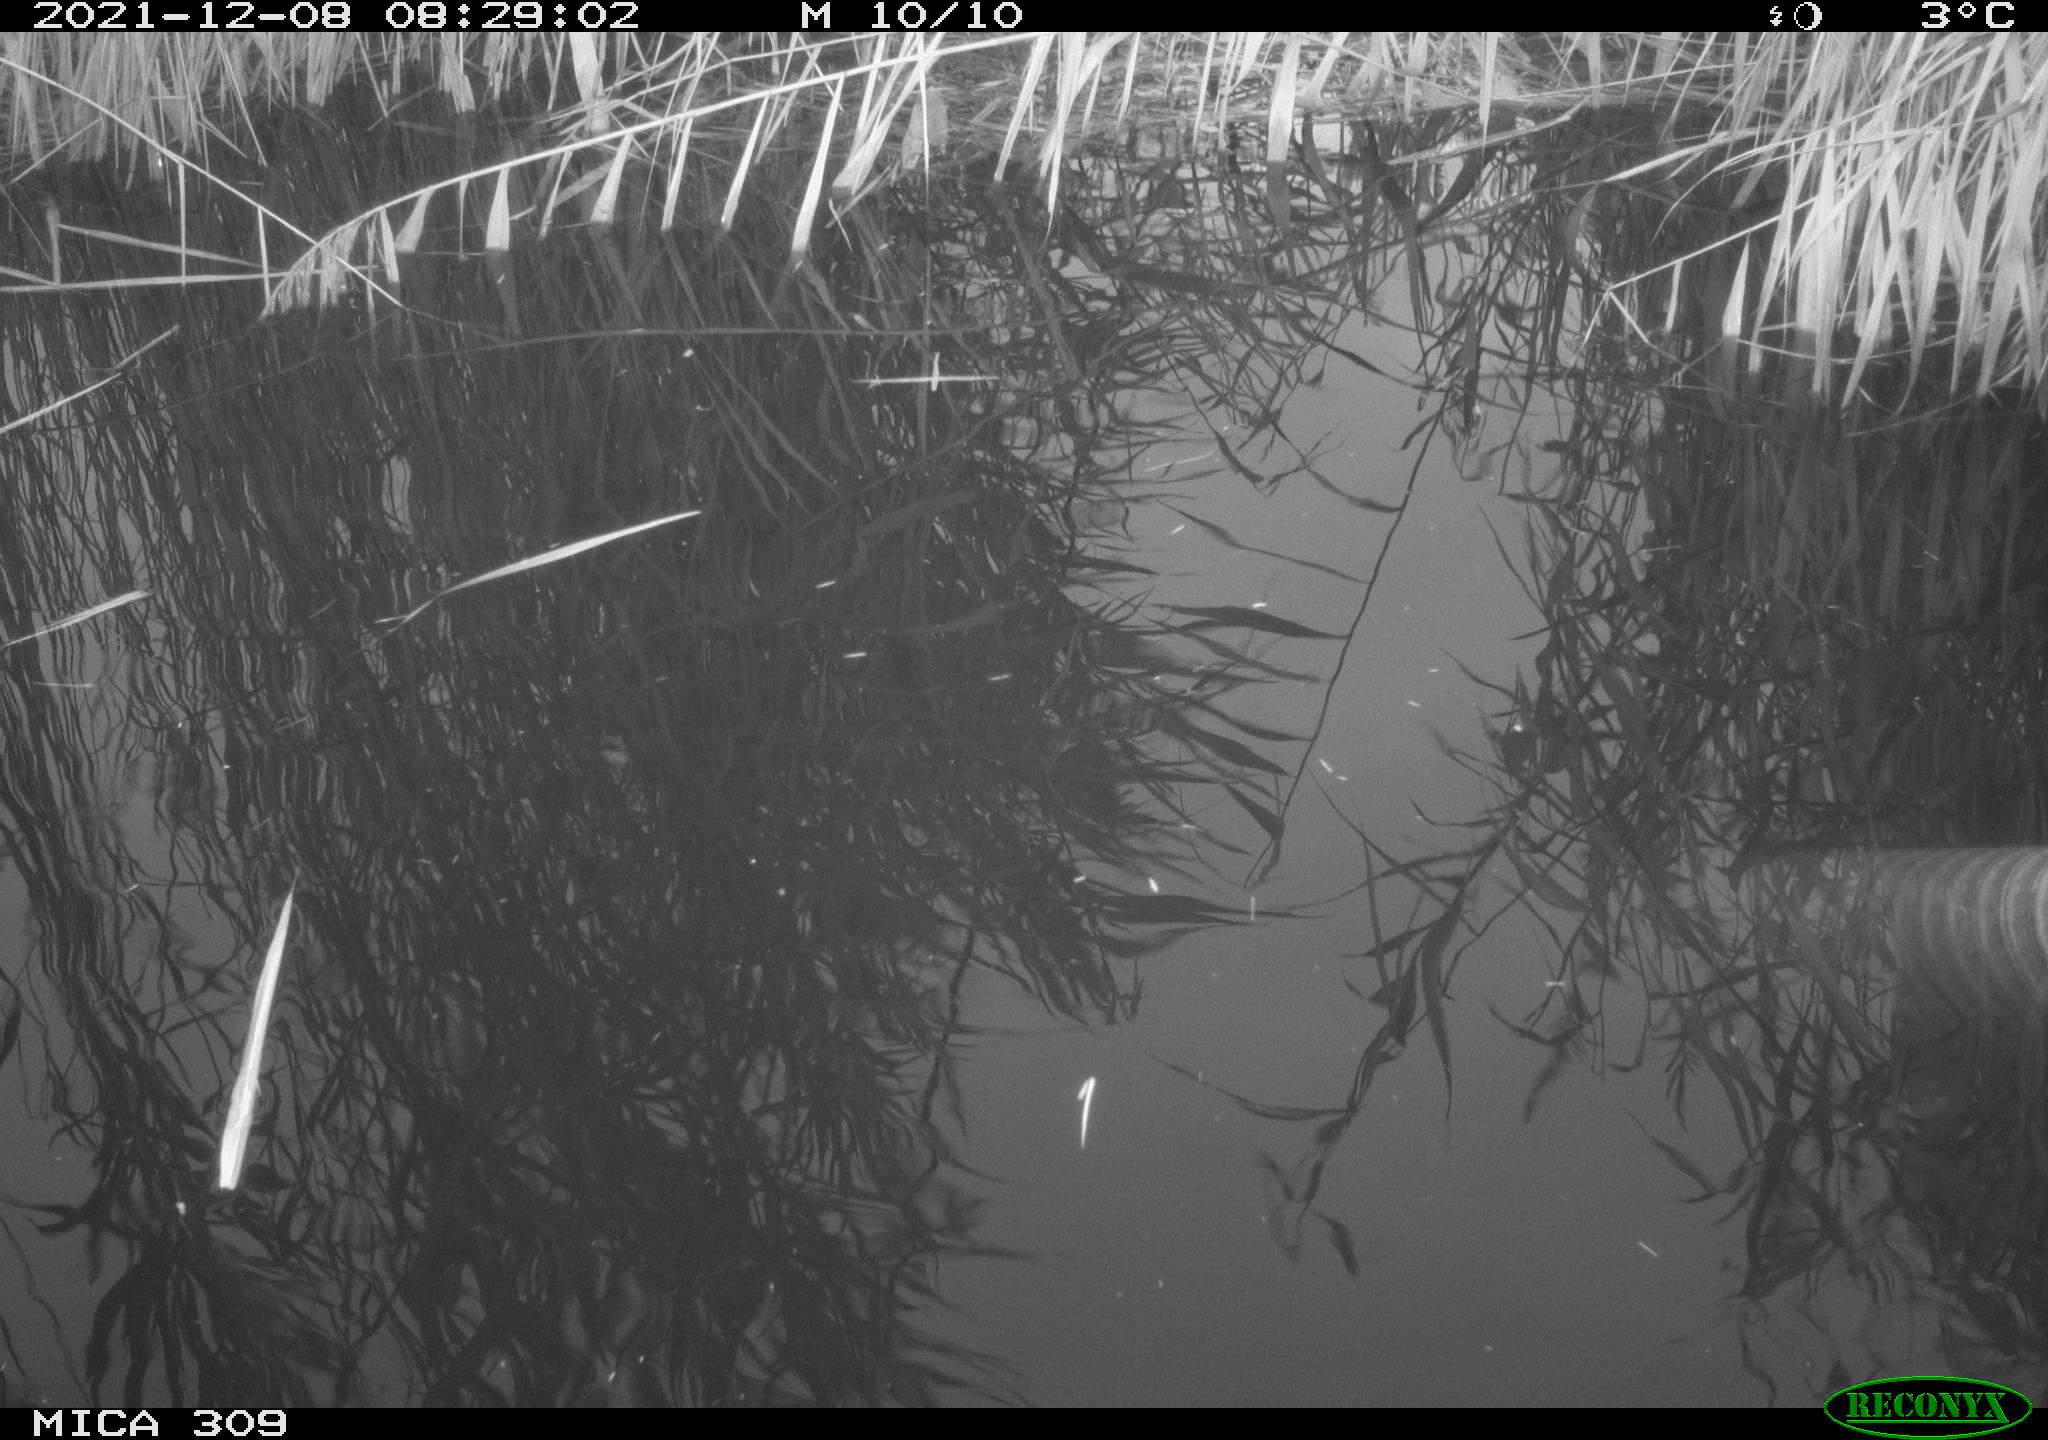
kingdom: Animalia
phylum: Chordata
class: Aves
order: Gruiformes
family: Rallidae
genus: Gallinula
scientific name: Gallinula chloropus
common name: Common moorhen
